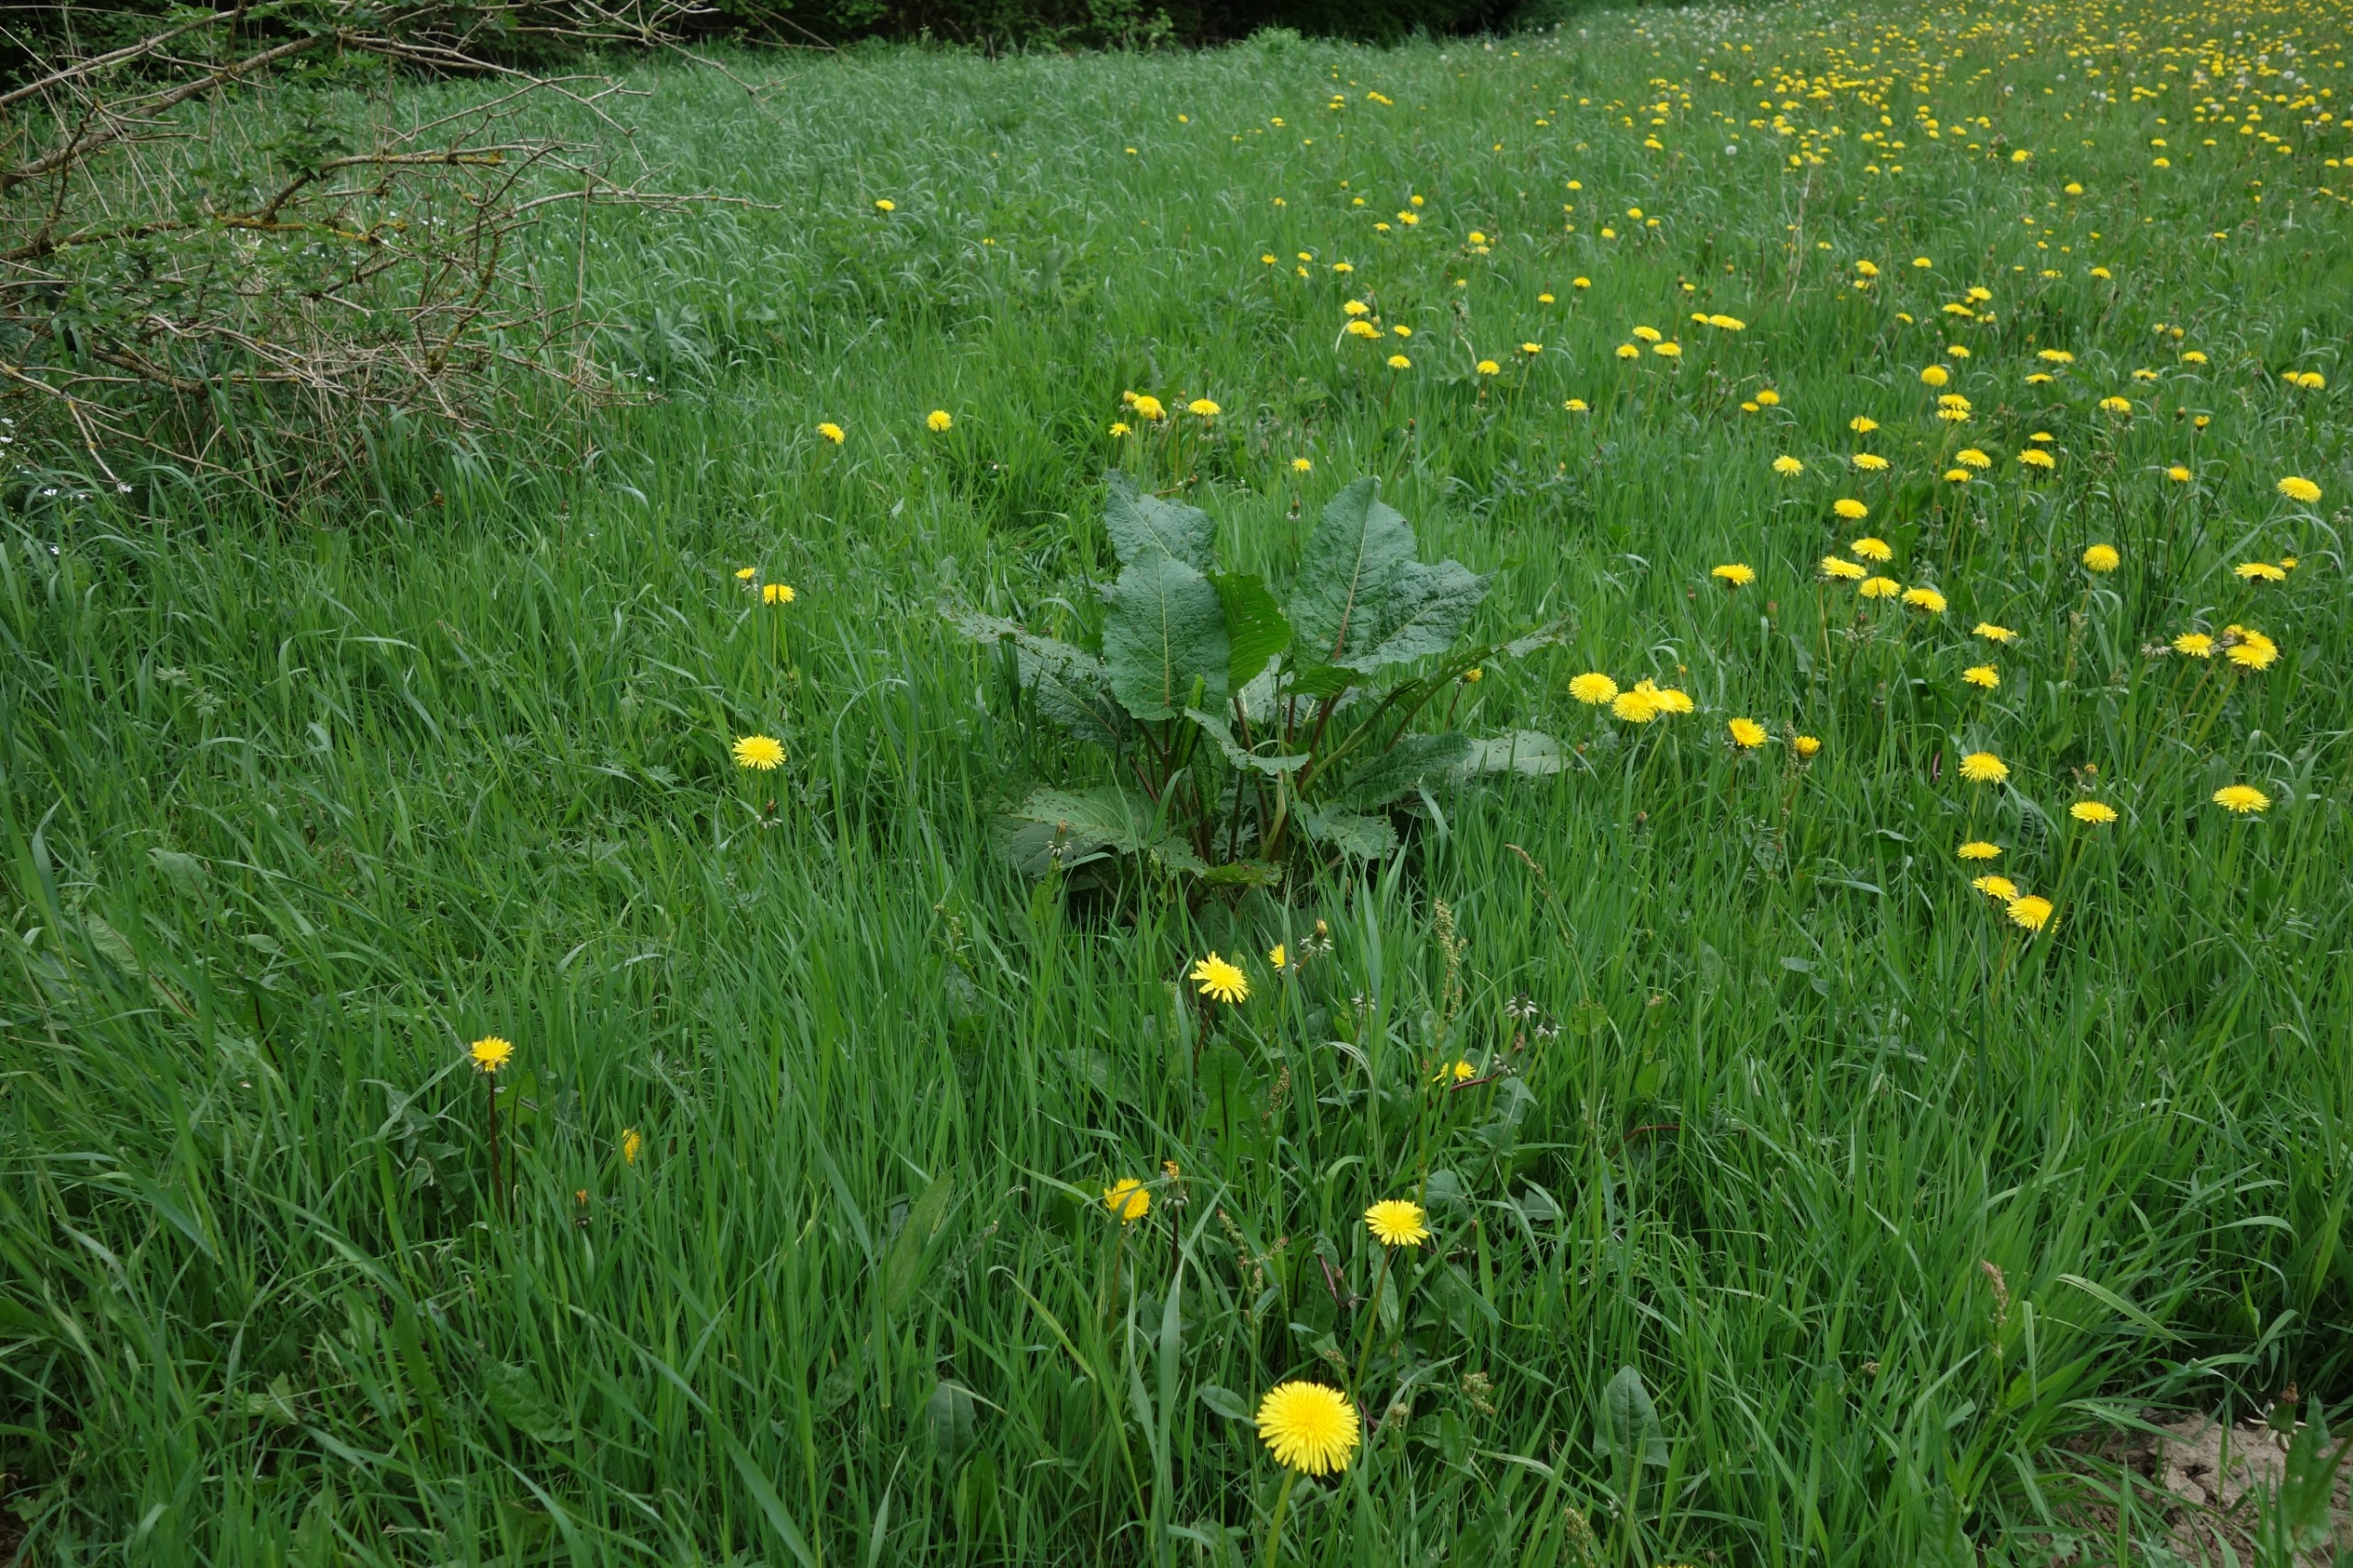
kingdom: Plantae
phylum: Tracheophyta
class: Magnoliopsida
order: Caryophyllales
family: Polygonaceae
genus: Rumex
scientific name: Rumex obtusifolius
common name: Butbladet skræppe
